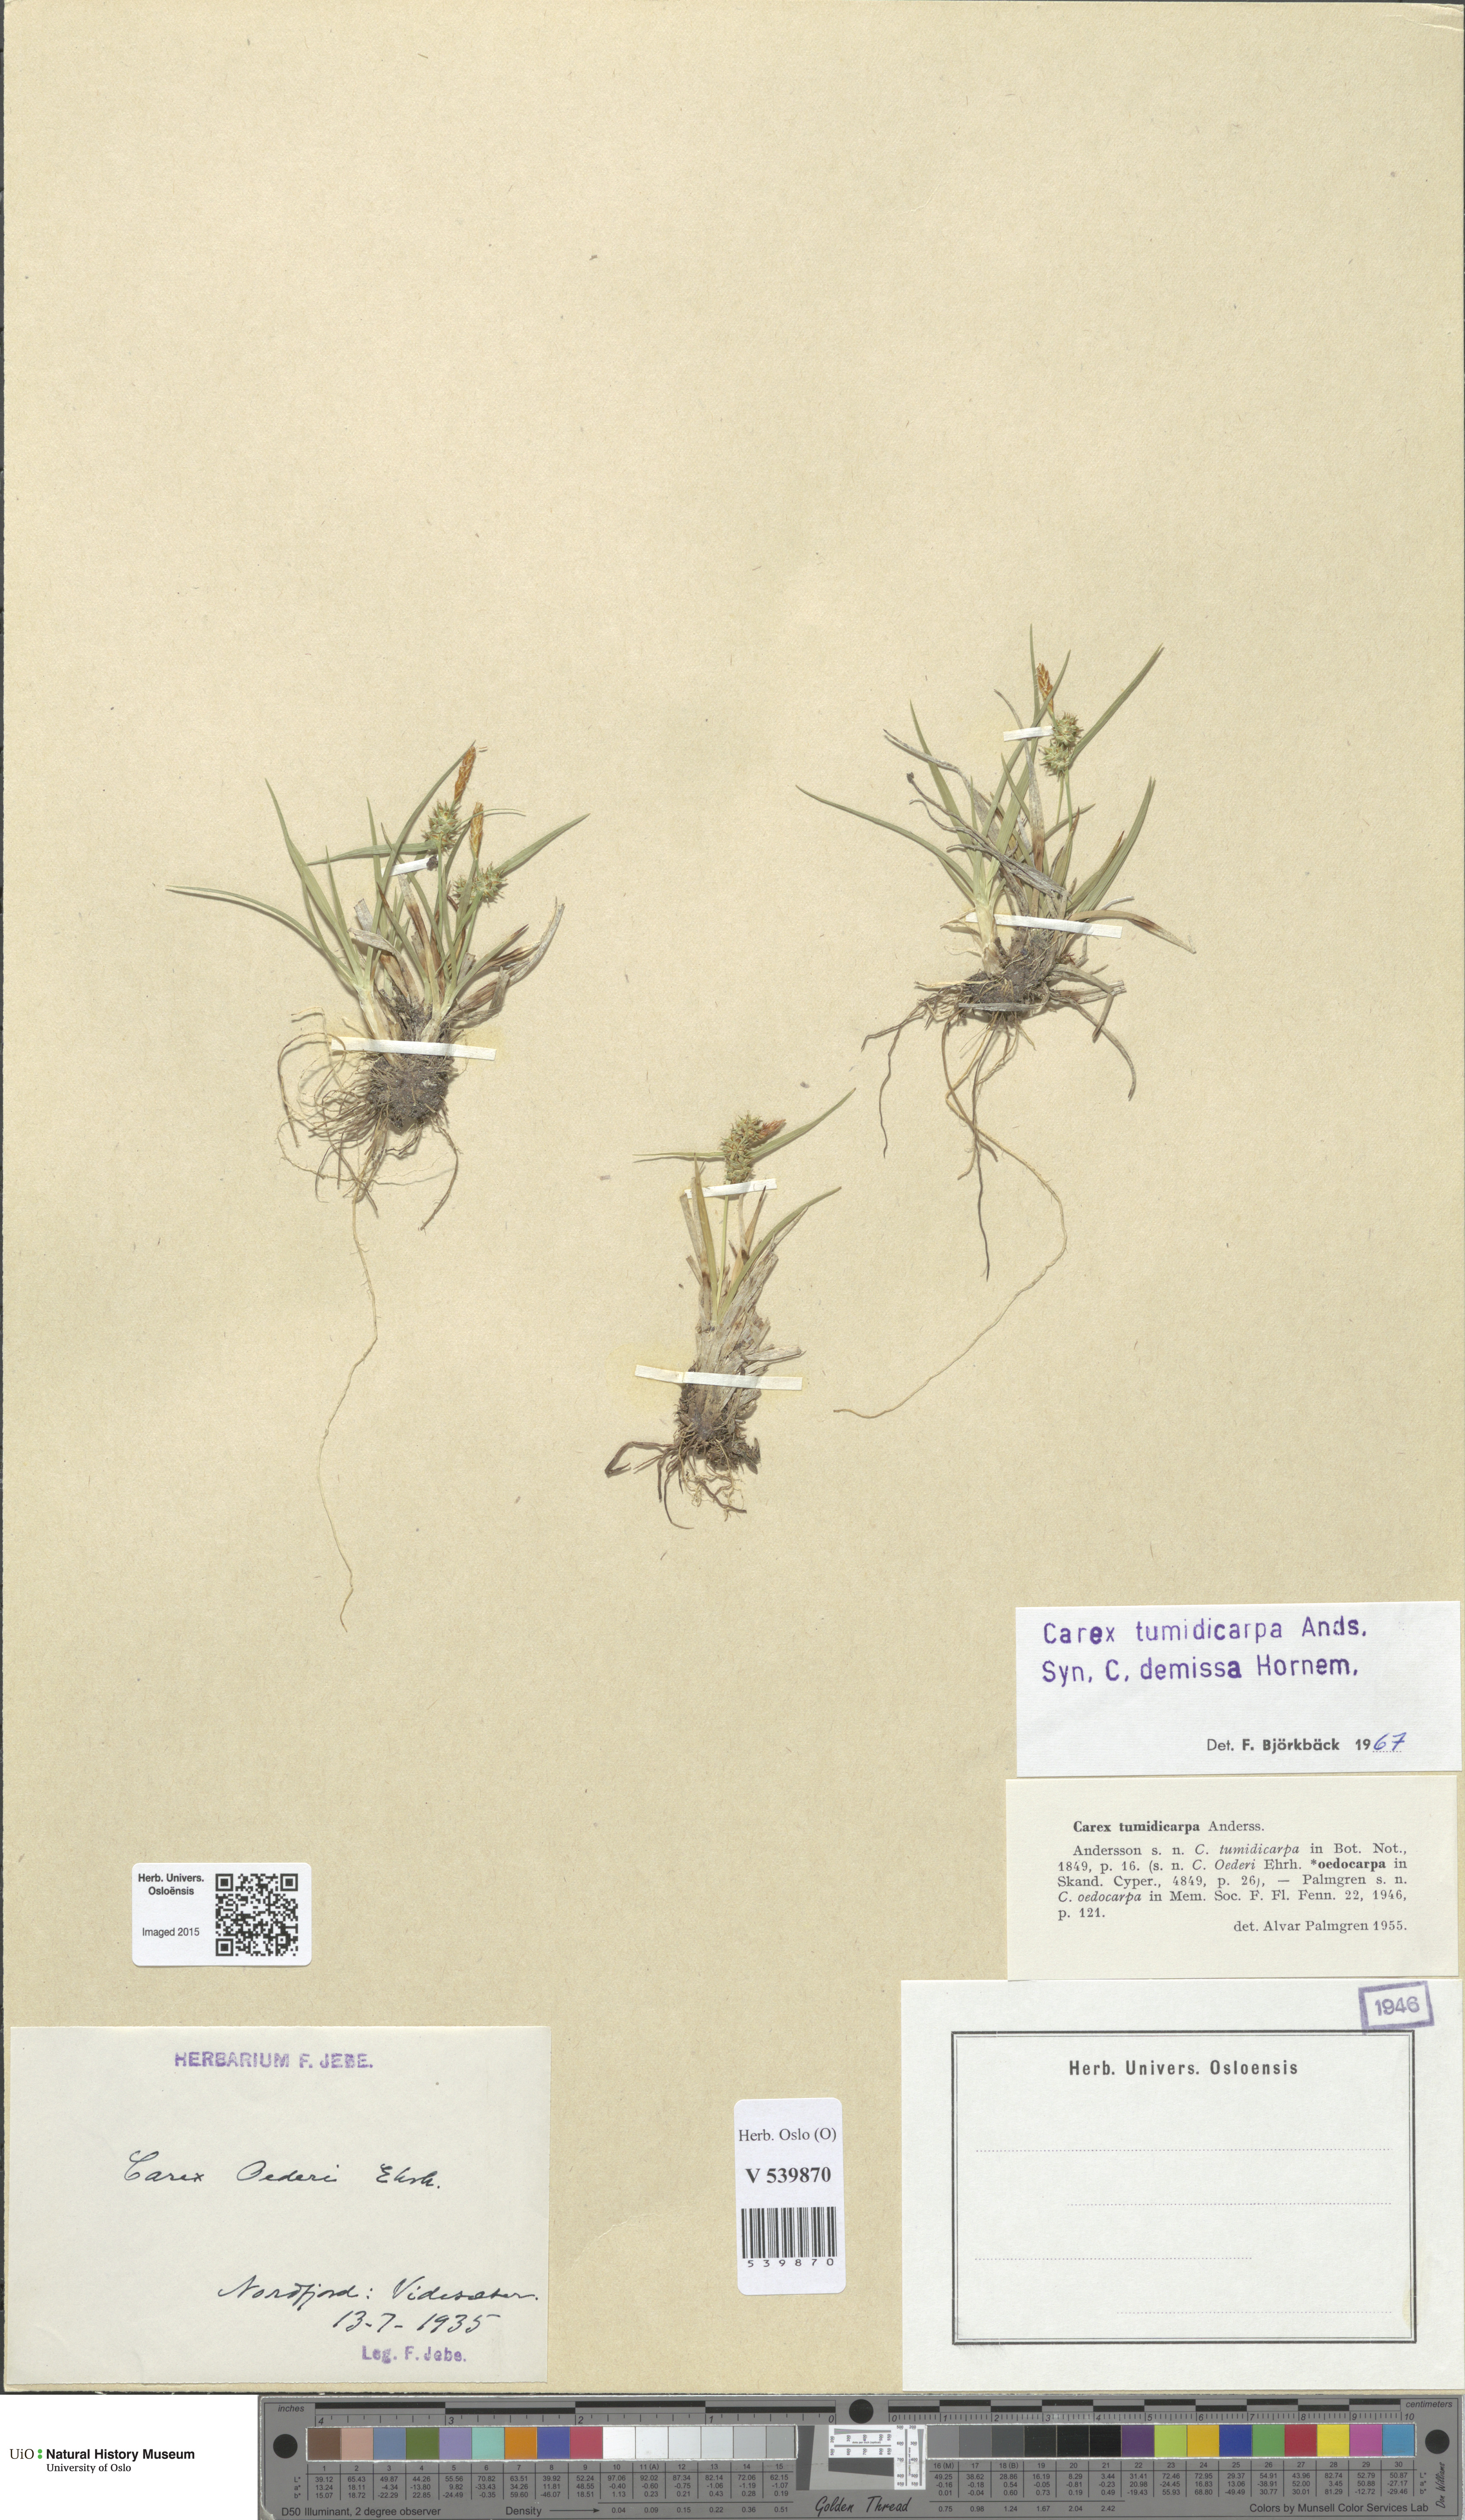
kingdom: Plantae
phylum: Tracheophyta
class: Liliopsida
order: Poales
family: Cyperaceae
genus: Carex
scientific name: Carex demissa
